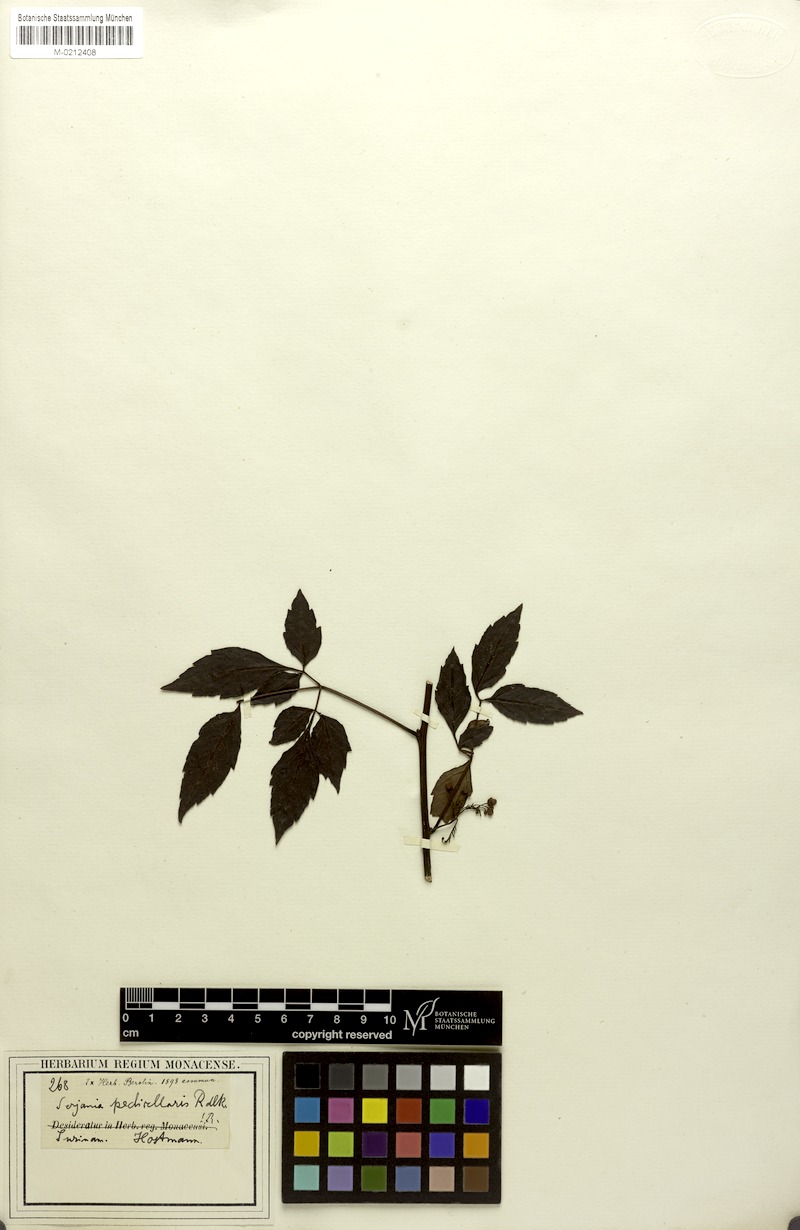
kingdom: Plantae
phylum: Tracheophyta
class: Magnoliopsida
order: Sapindales
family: Sapindaceae
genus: Serjania
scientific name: Serjania pedicellaris
